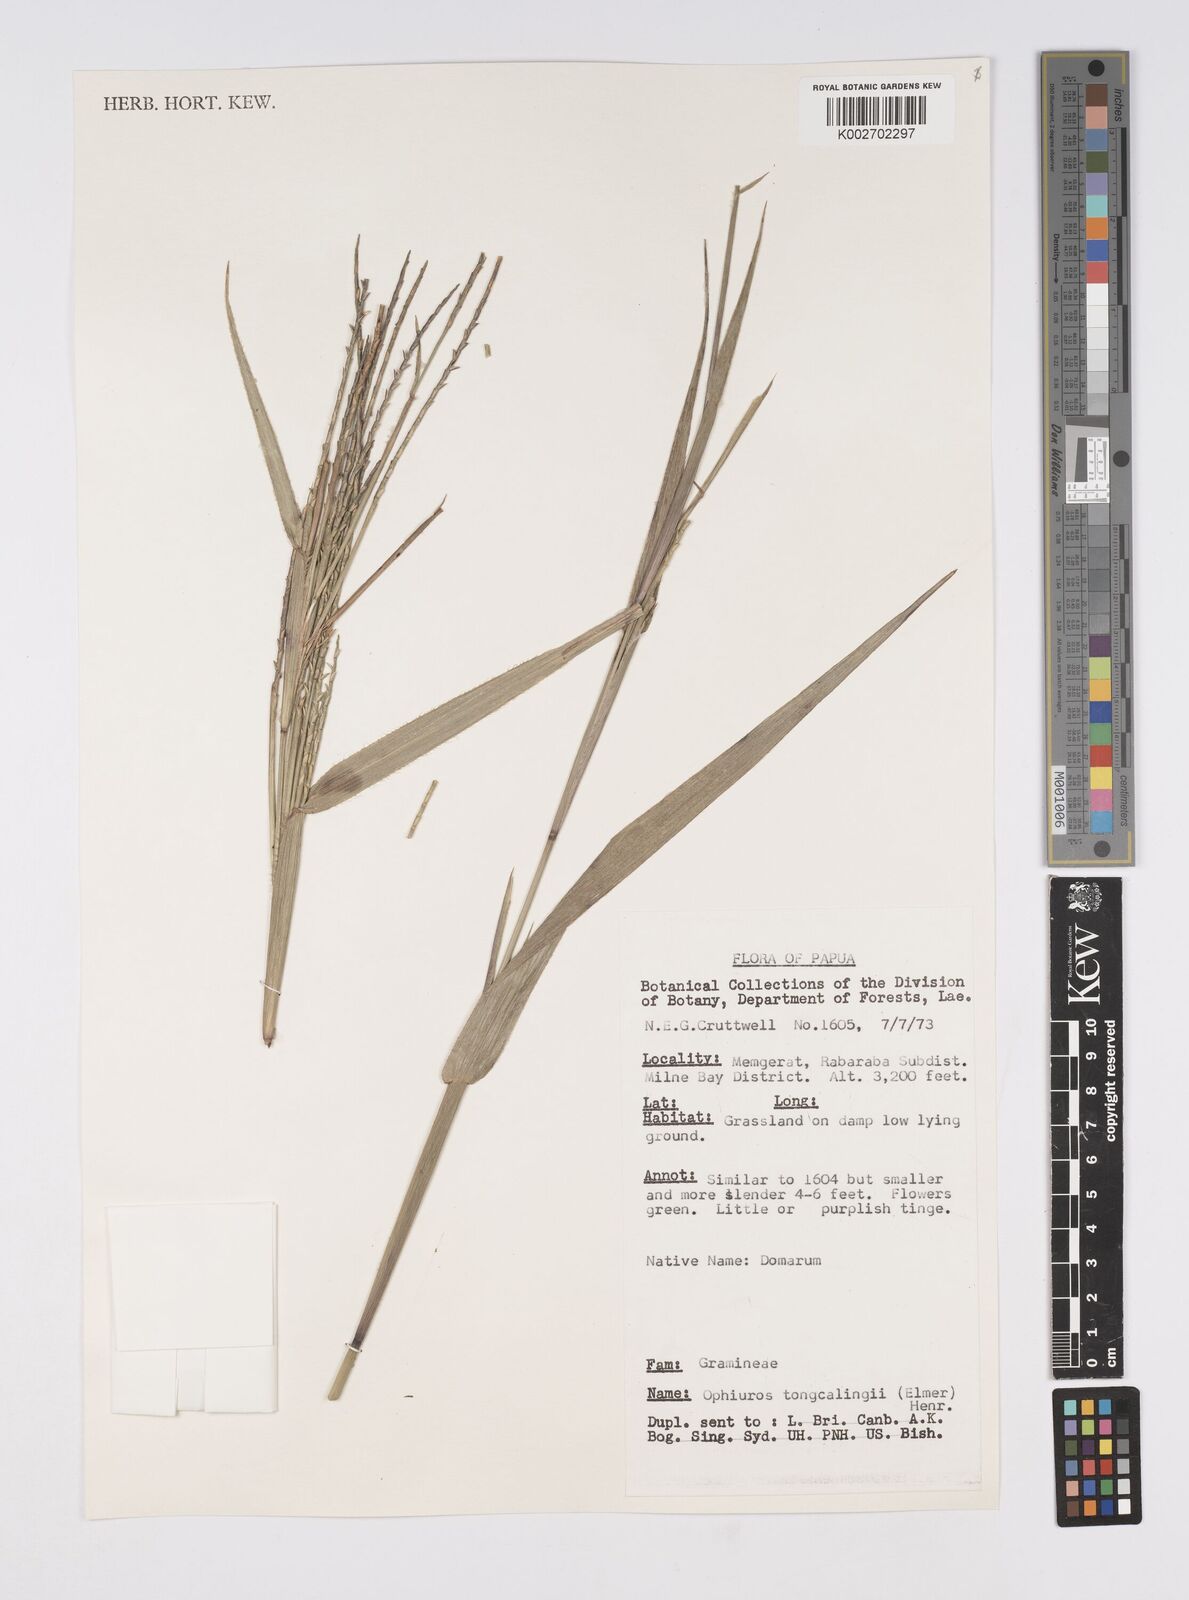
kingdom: Plantae
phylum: Tracheophyta
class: Liliopsida
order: Poales
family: Poaceae
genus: Ophiuros
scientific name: Ophiuros megaphyllus
